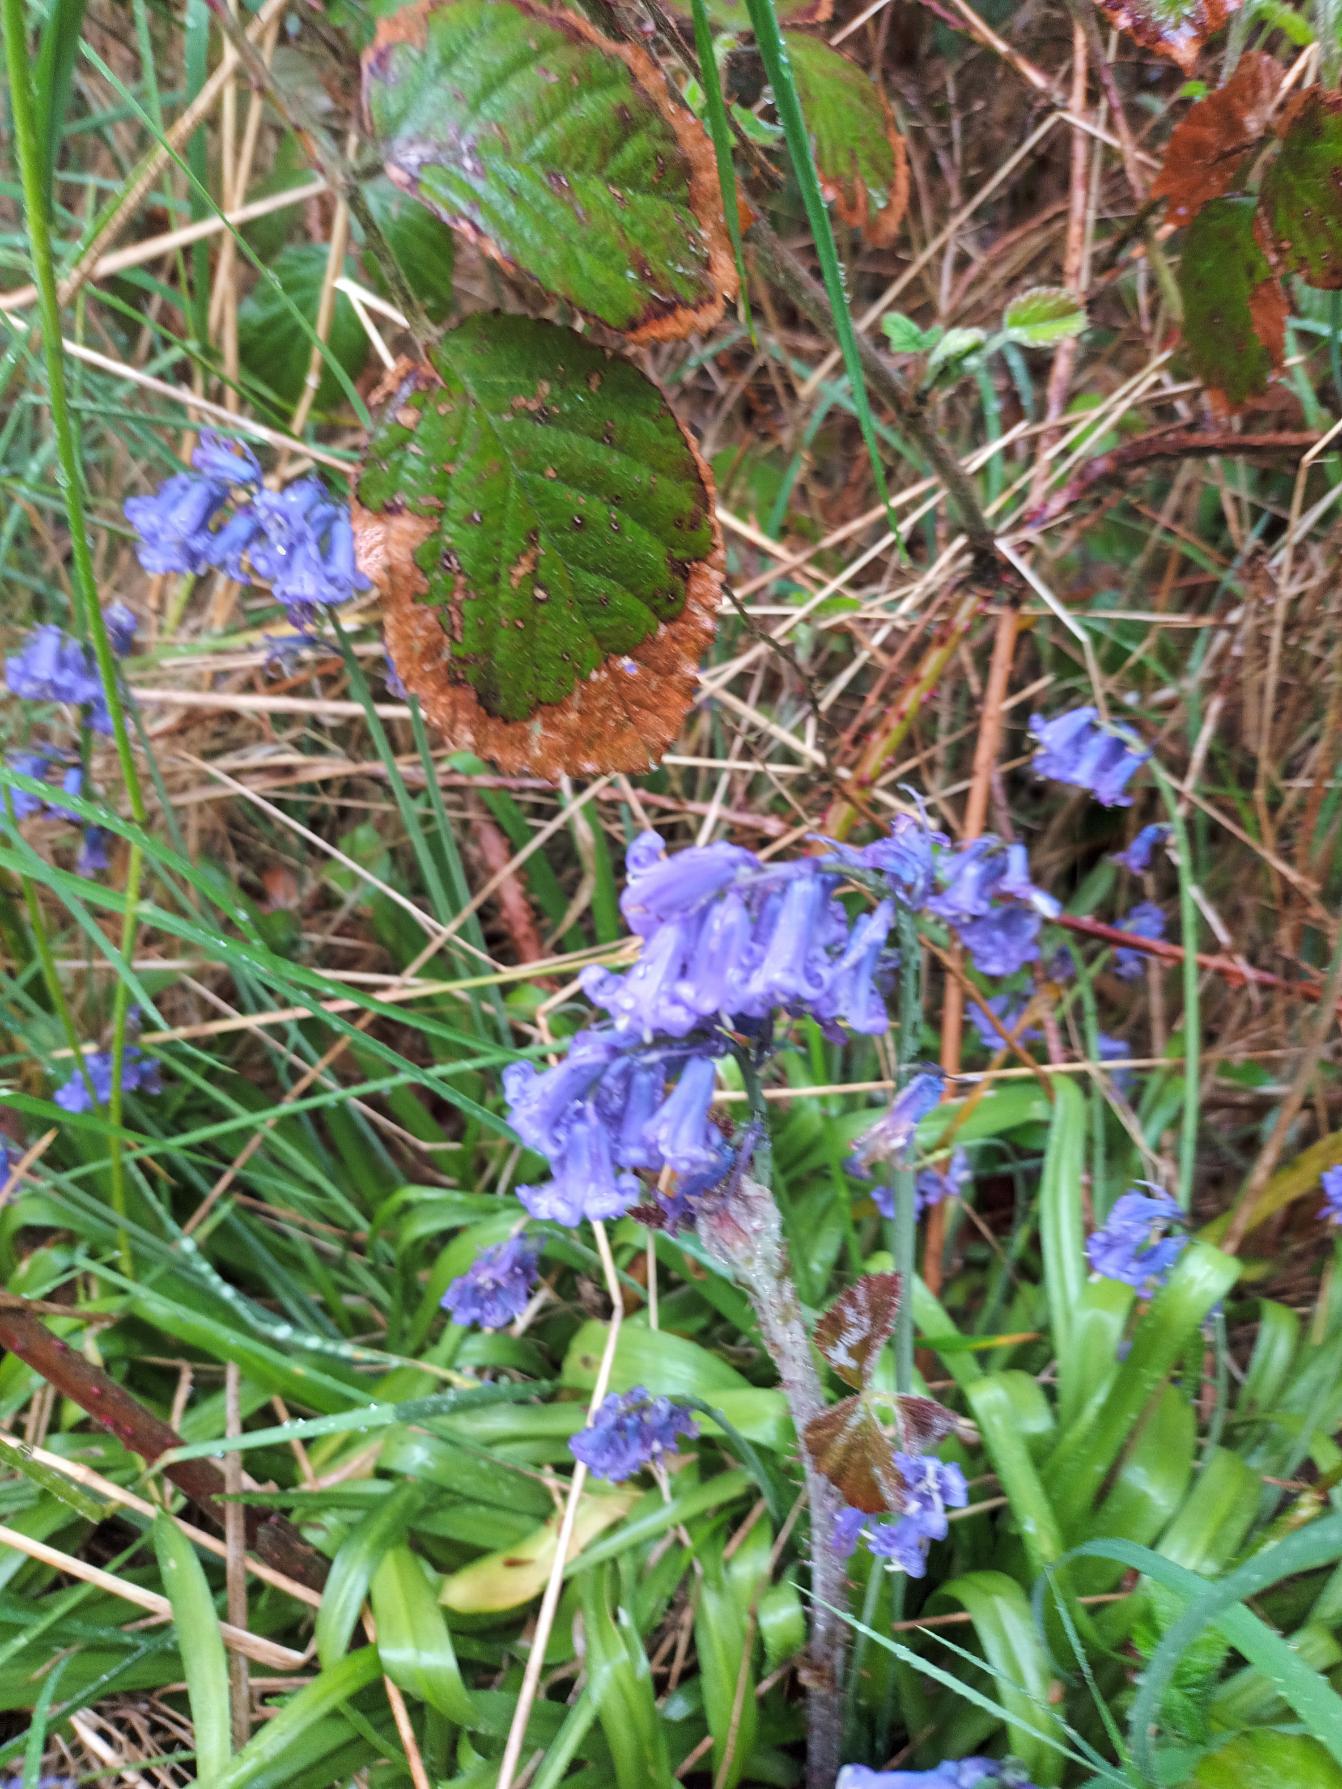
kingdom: Plantae
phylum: Tracheophyta
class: Liliopsida
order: Asparagales
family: Asparagaceae
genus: Hyacinthoides
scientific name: Hyacinthoides non-scripta
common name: Klokke-skilla
